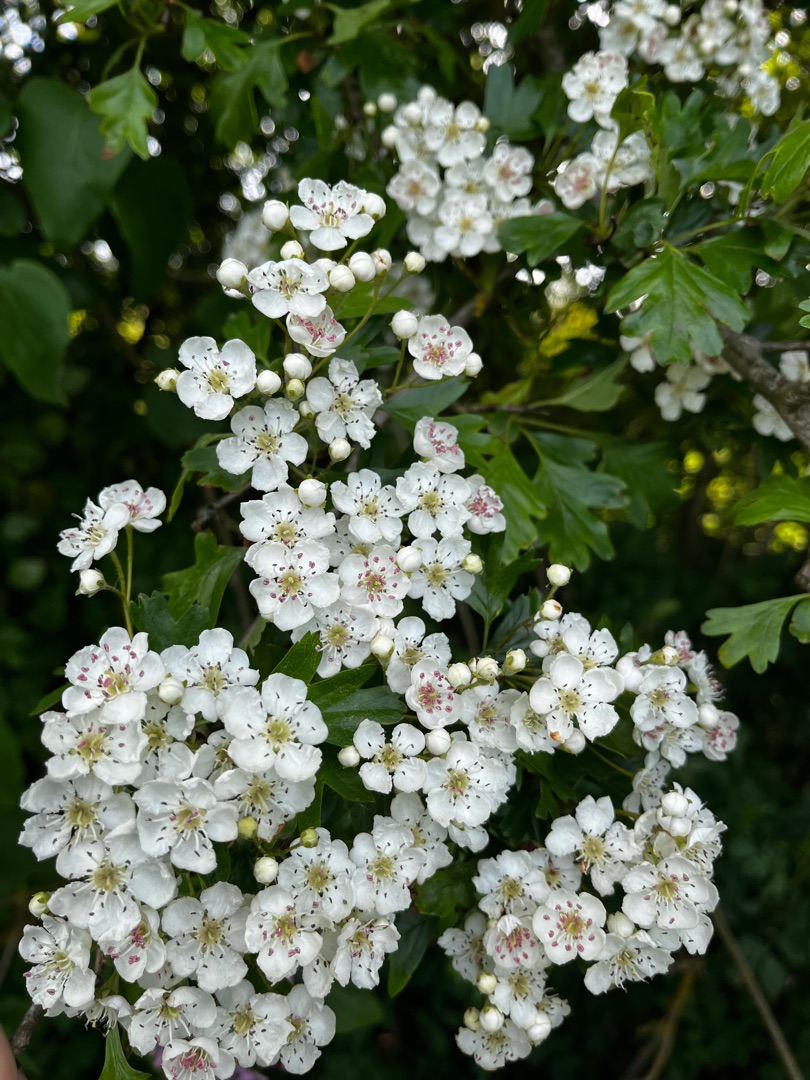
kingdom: Plantae
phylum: Tracheophyta
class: Magnoliopsida
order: Rosales
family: Rosaceae
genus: Crataegus
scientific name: Crataegus monogyna
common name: Engriflet hvidtjørn
